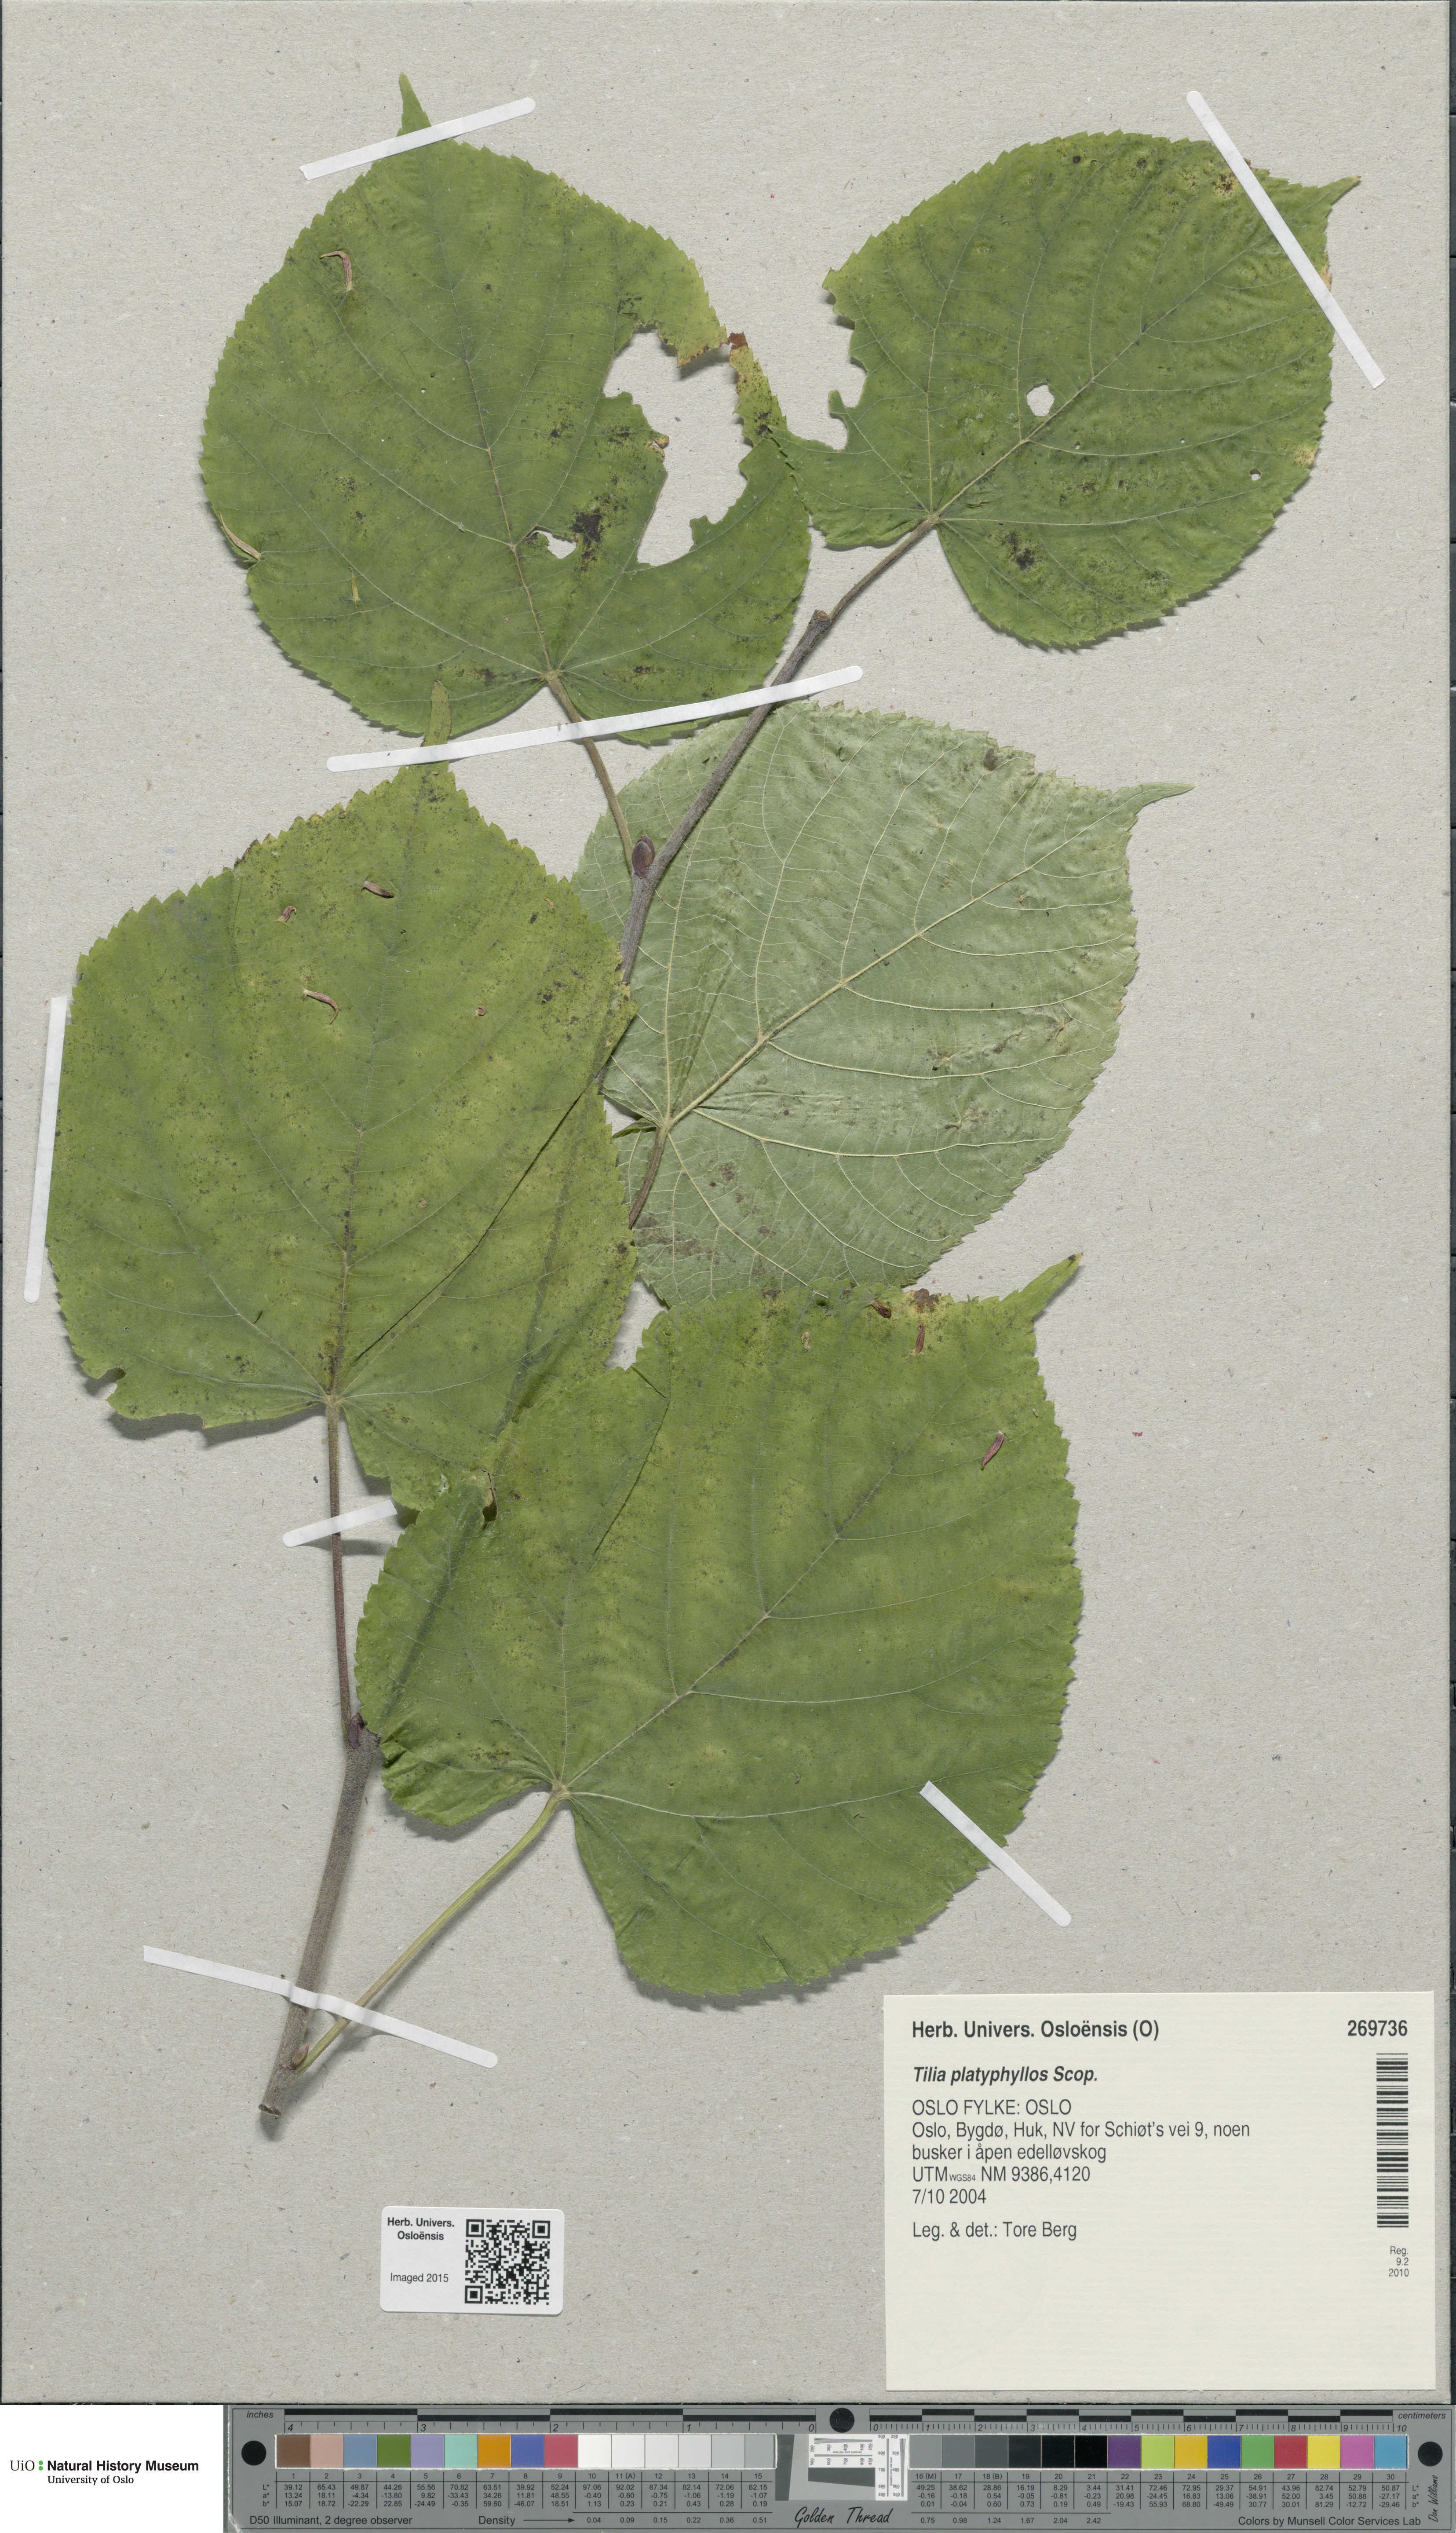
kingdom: Plantae
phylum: Tracheophyta
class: Magnoliopsida
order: Malvales
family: Malvaceae
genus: Tilia
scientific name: Tilia platyphyllos
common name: Large-leaved lime
